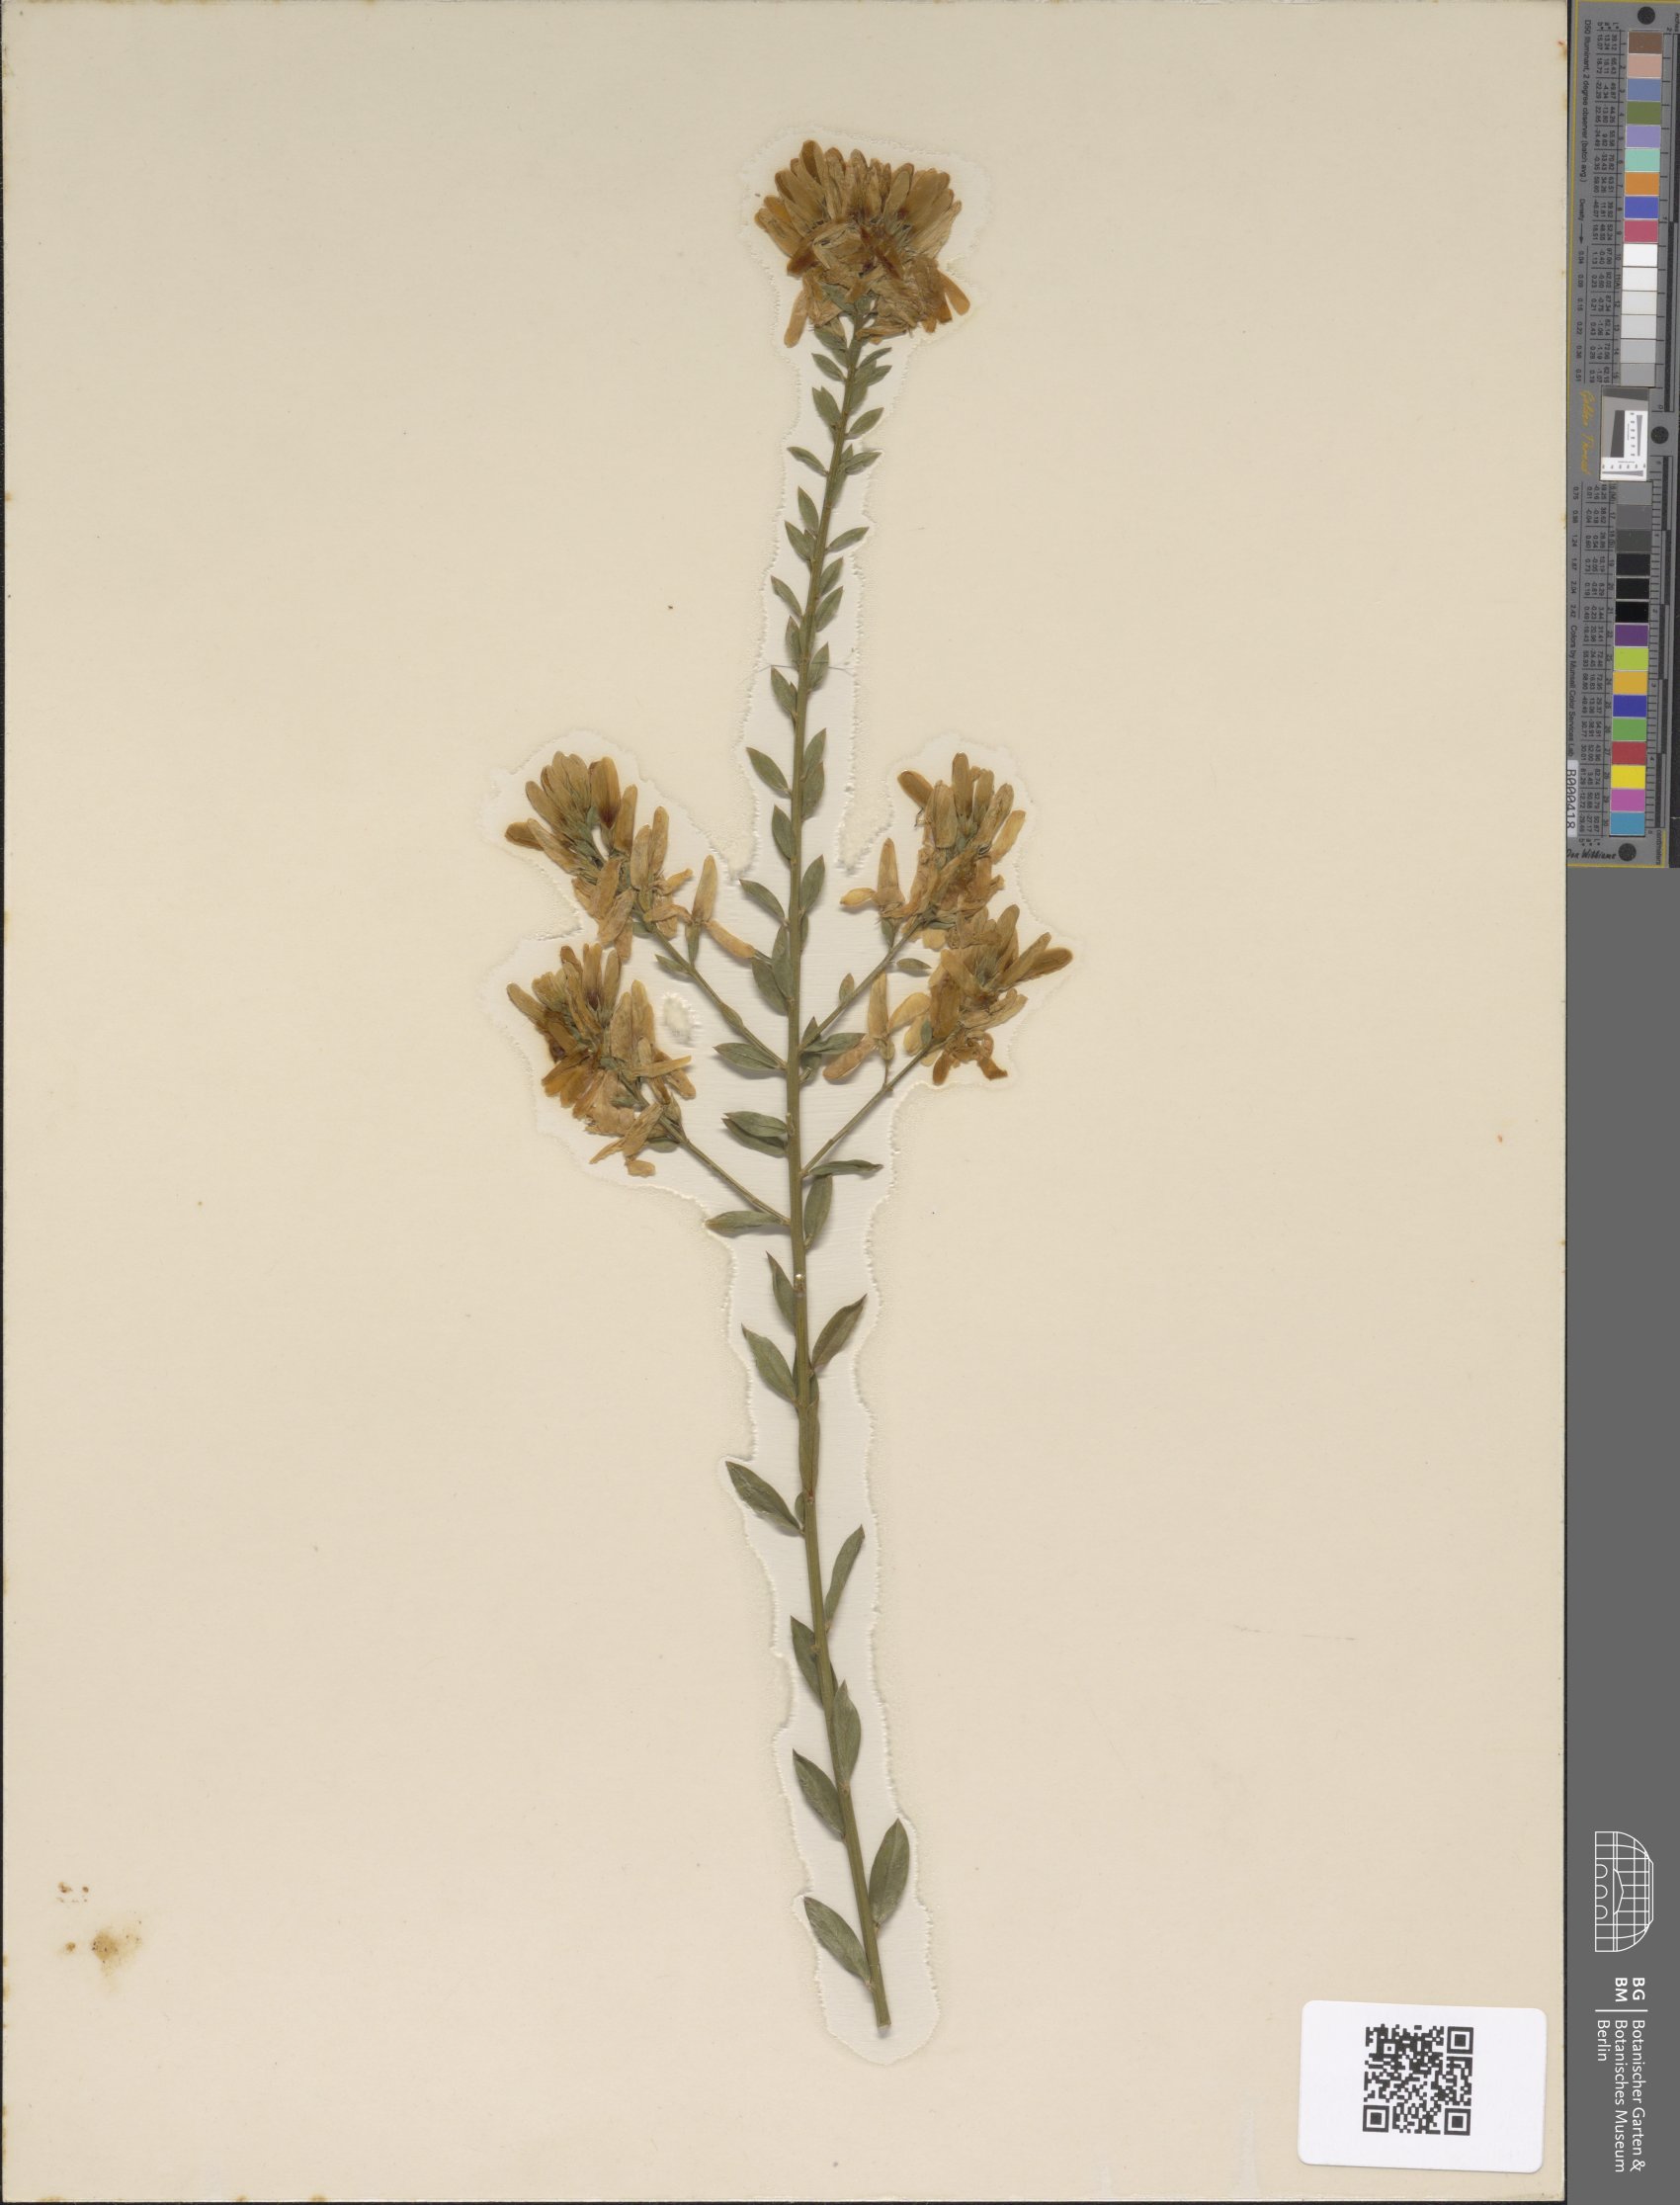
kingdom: Plantae
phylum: Tracheophyta
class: Magnoliopsida
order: Fabales
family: Fabaceae
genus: Genista
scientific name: Genista tinctoria
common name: Dyer's greenweed
